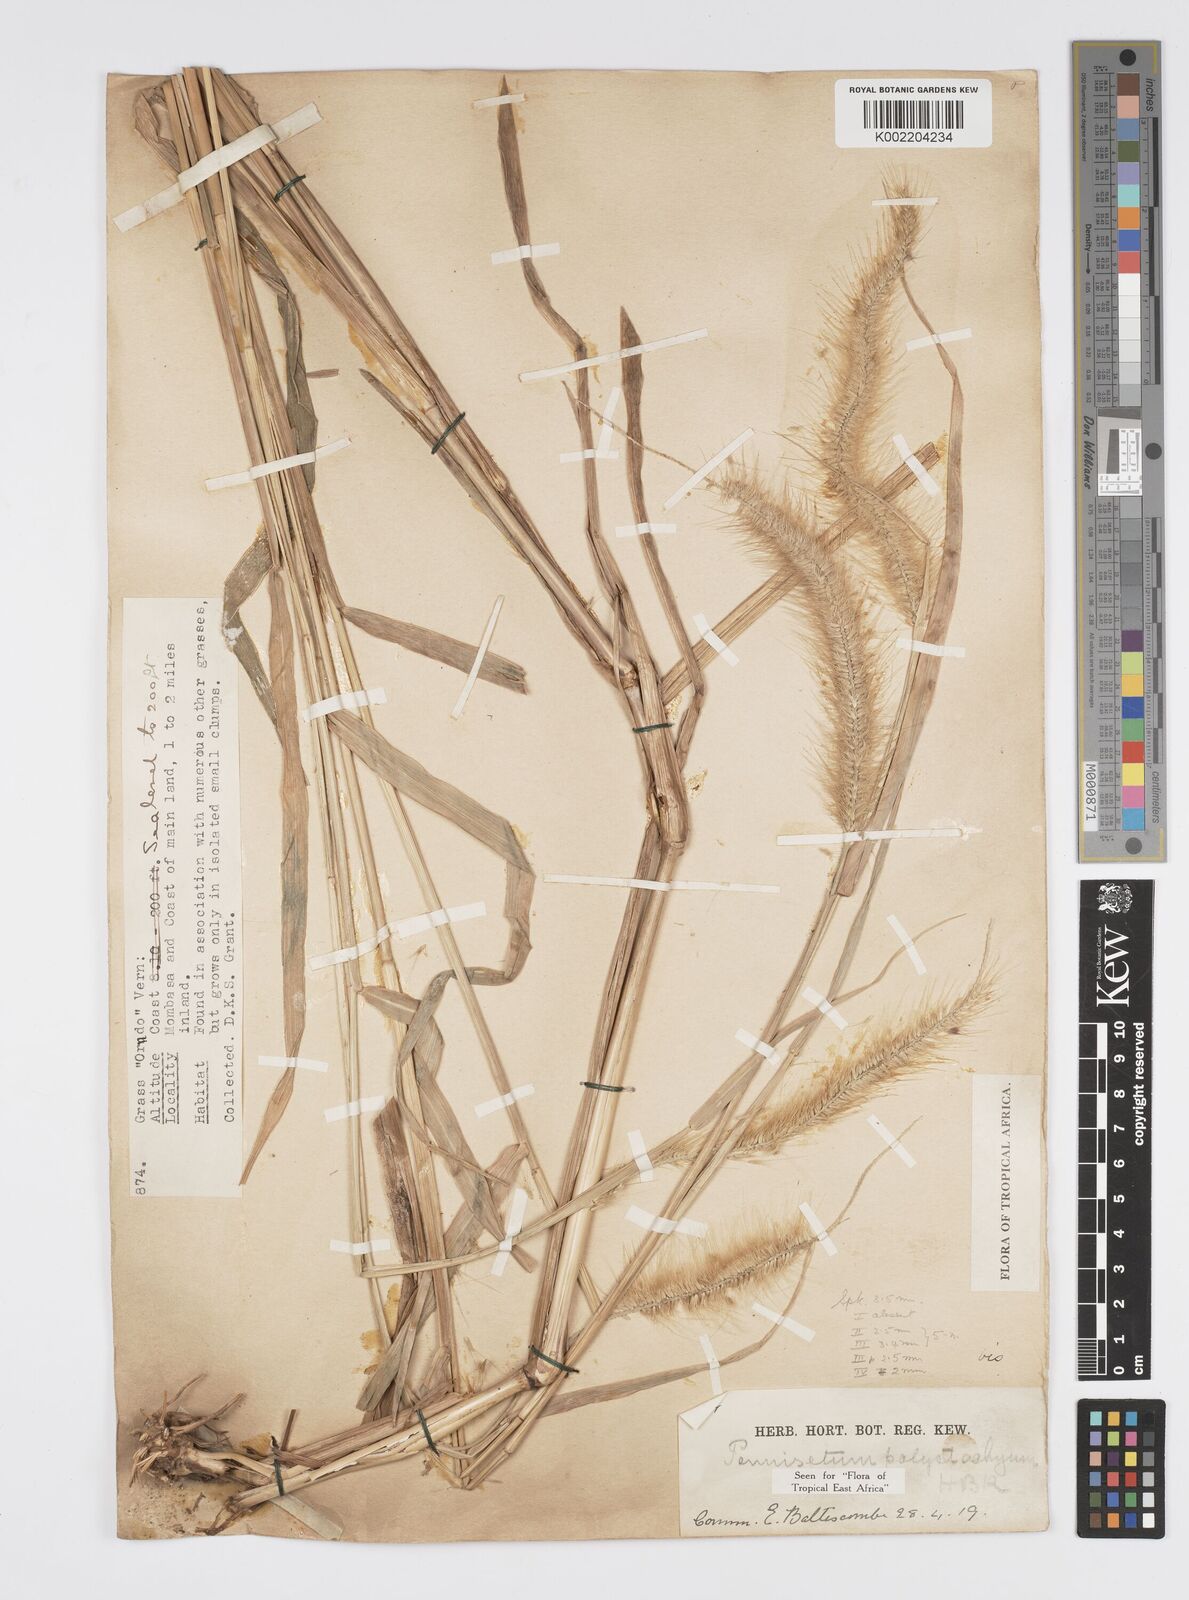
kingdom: Plantae
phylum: Tracheophyta
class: Liliopsida
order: Poales
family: Poaceae
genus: Setaria
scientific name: Setaria parviflora
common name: Knotroot bristle-grass
